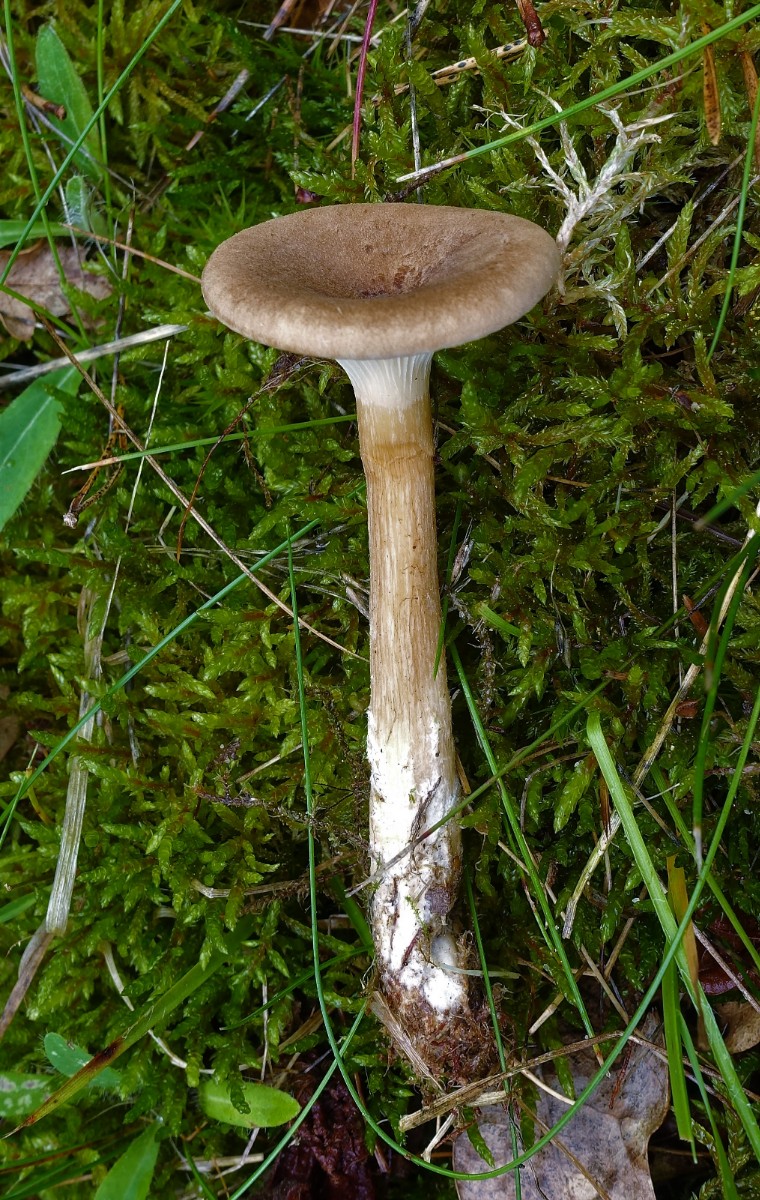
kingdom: Fungi
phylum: Basidiomycota
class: Agaricomycetes
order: Agaricales
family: Tricholomataceae
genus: Clitocybe
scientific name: Clitocybe costata
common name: brunstokket tragthat
